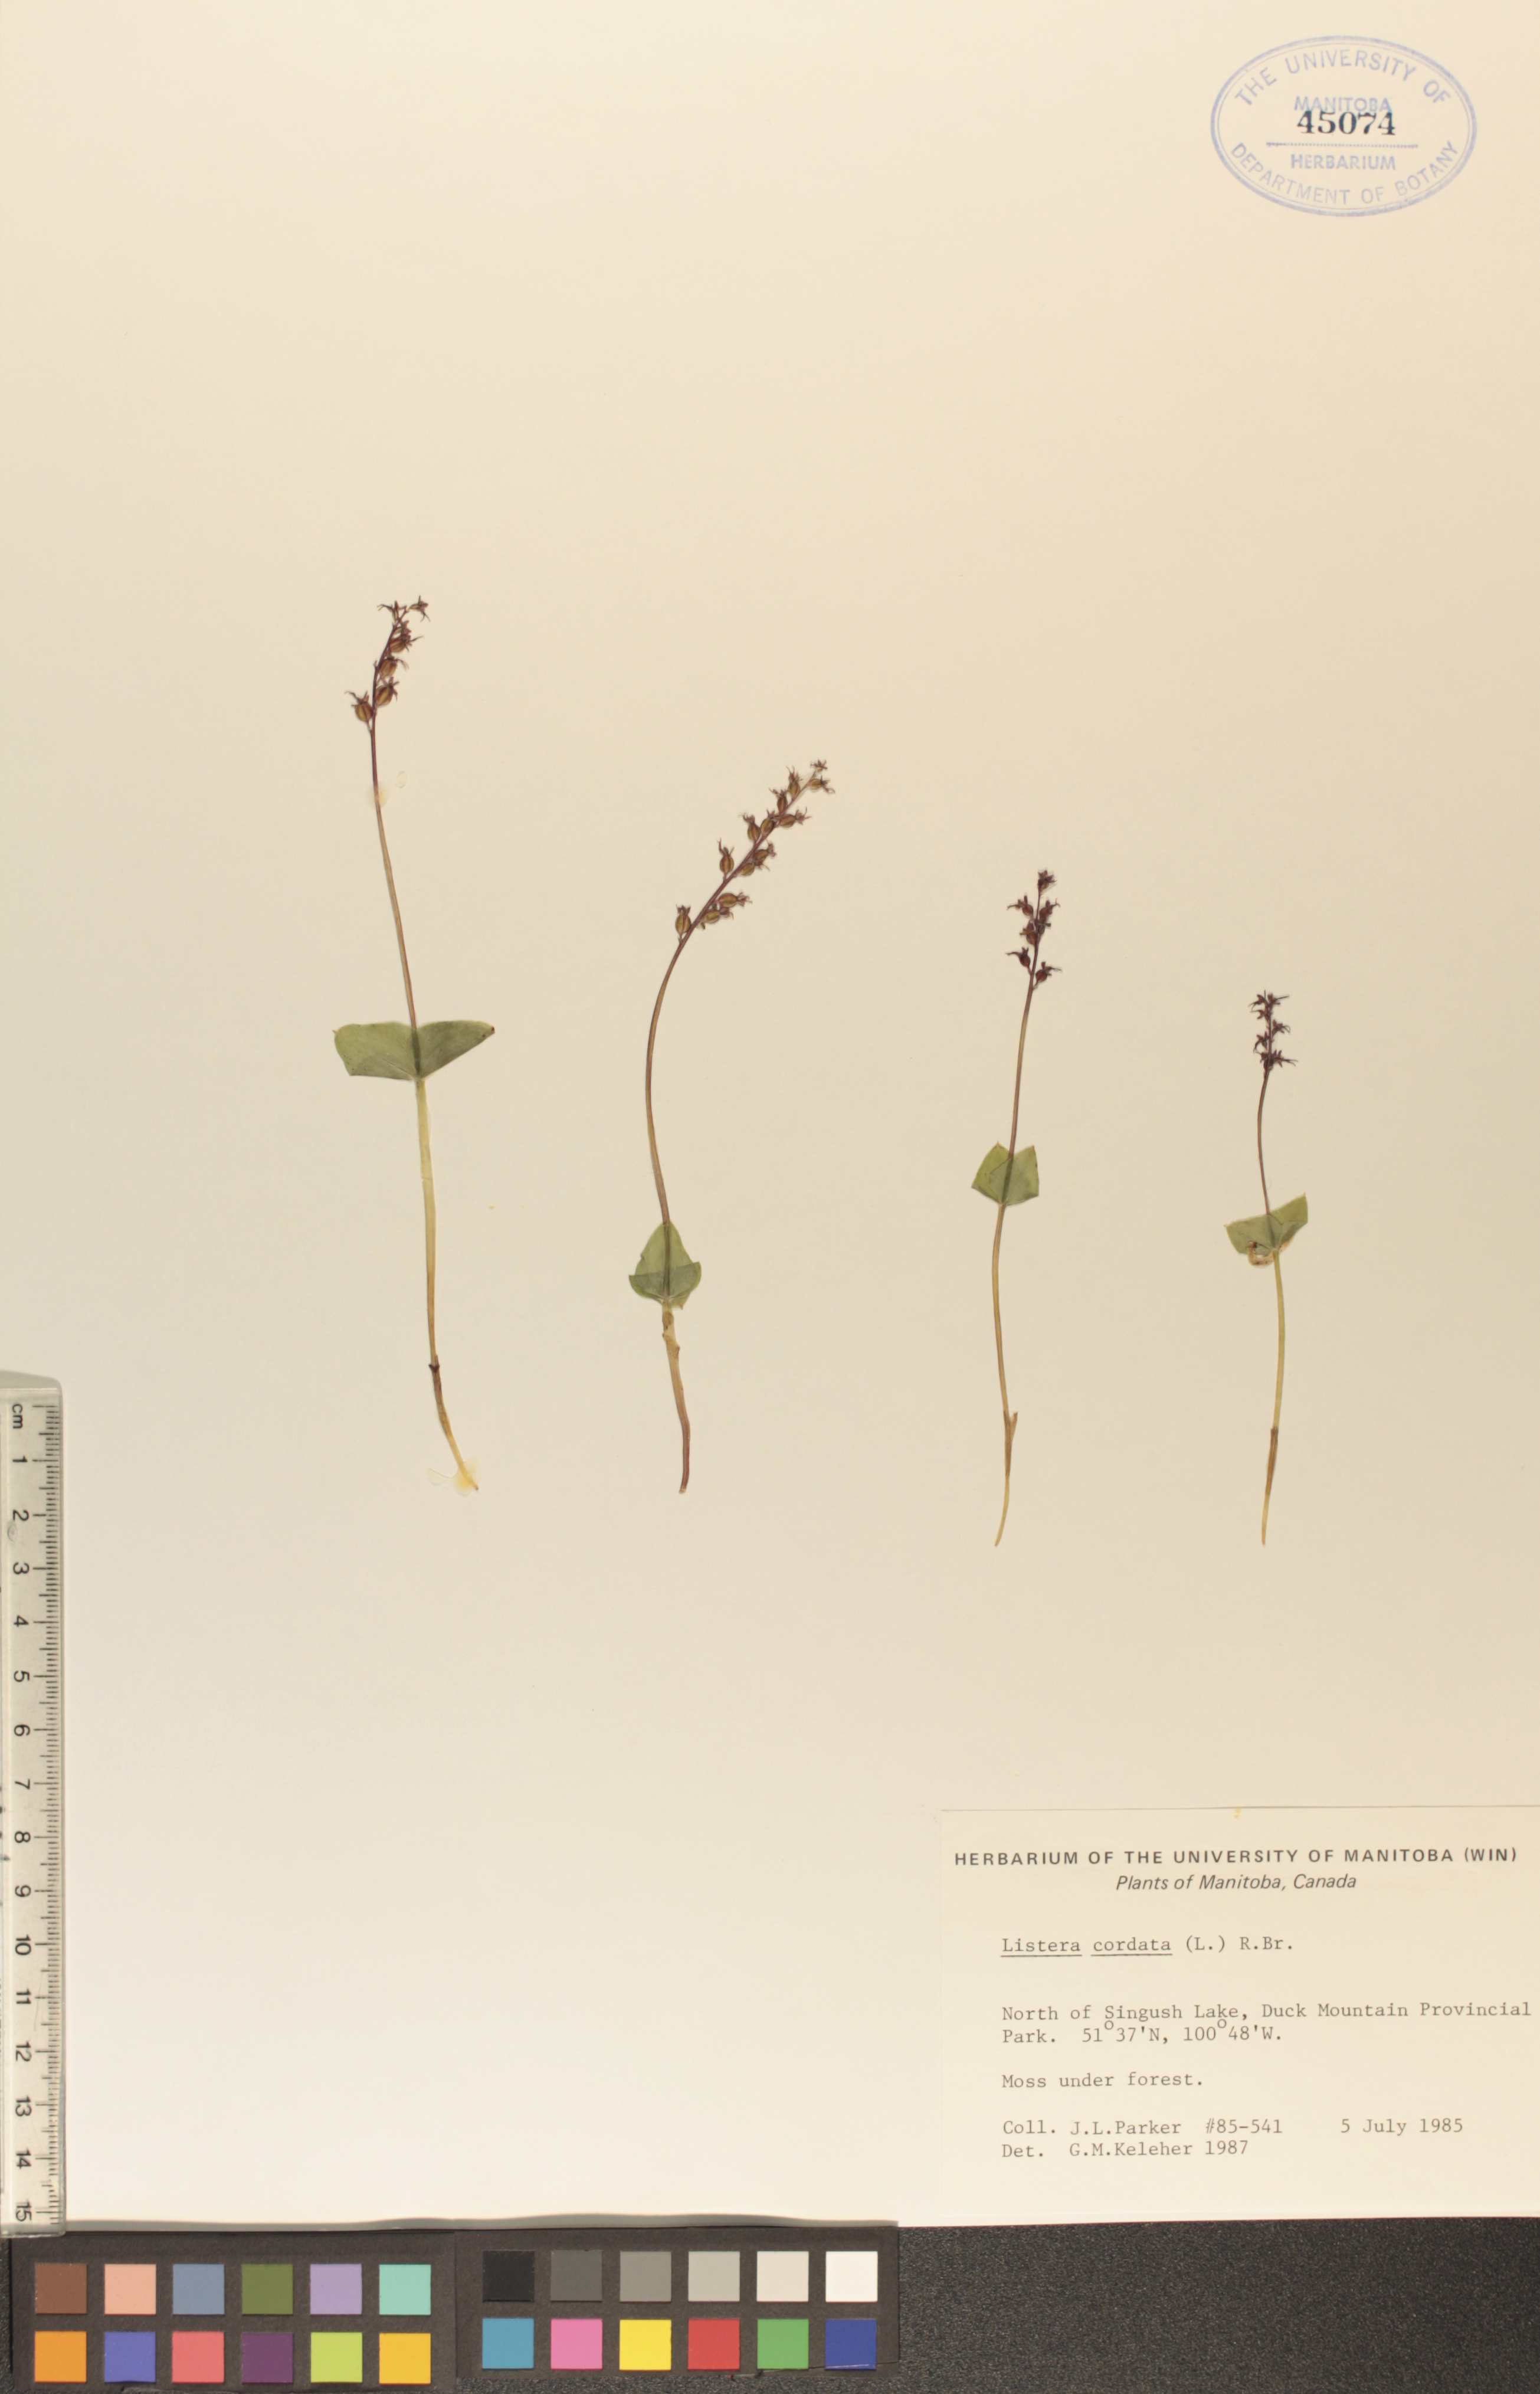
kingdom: Plantae
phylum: Tracheophyta
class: Liliopsida
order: Asparagales
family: Orchidaceae
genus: Neottia
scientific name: Neottia cordata
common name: Lesser twayblade
